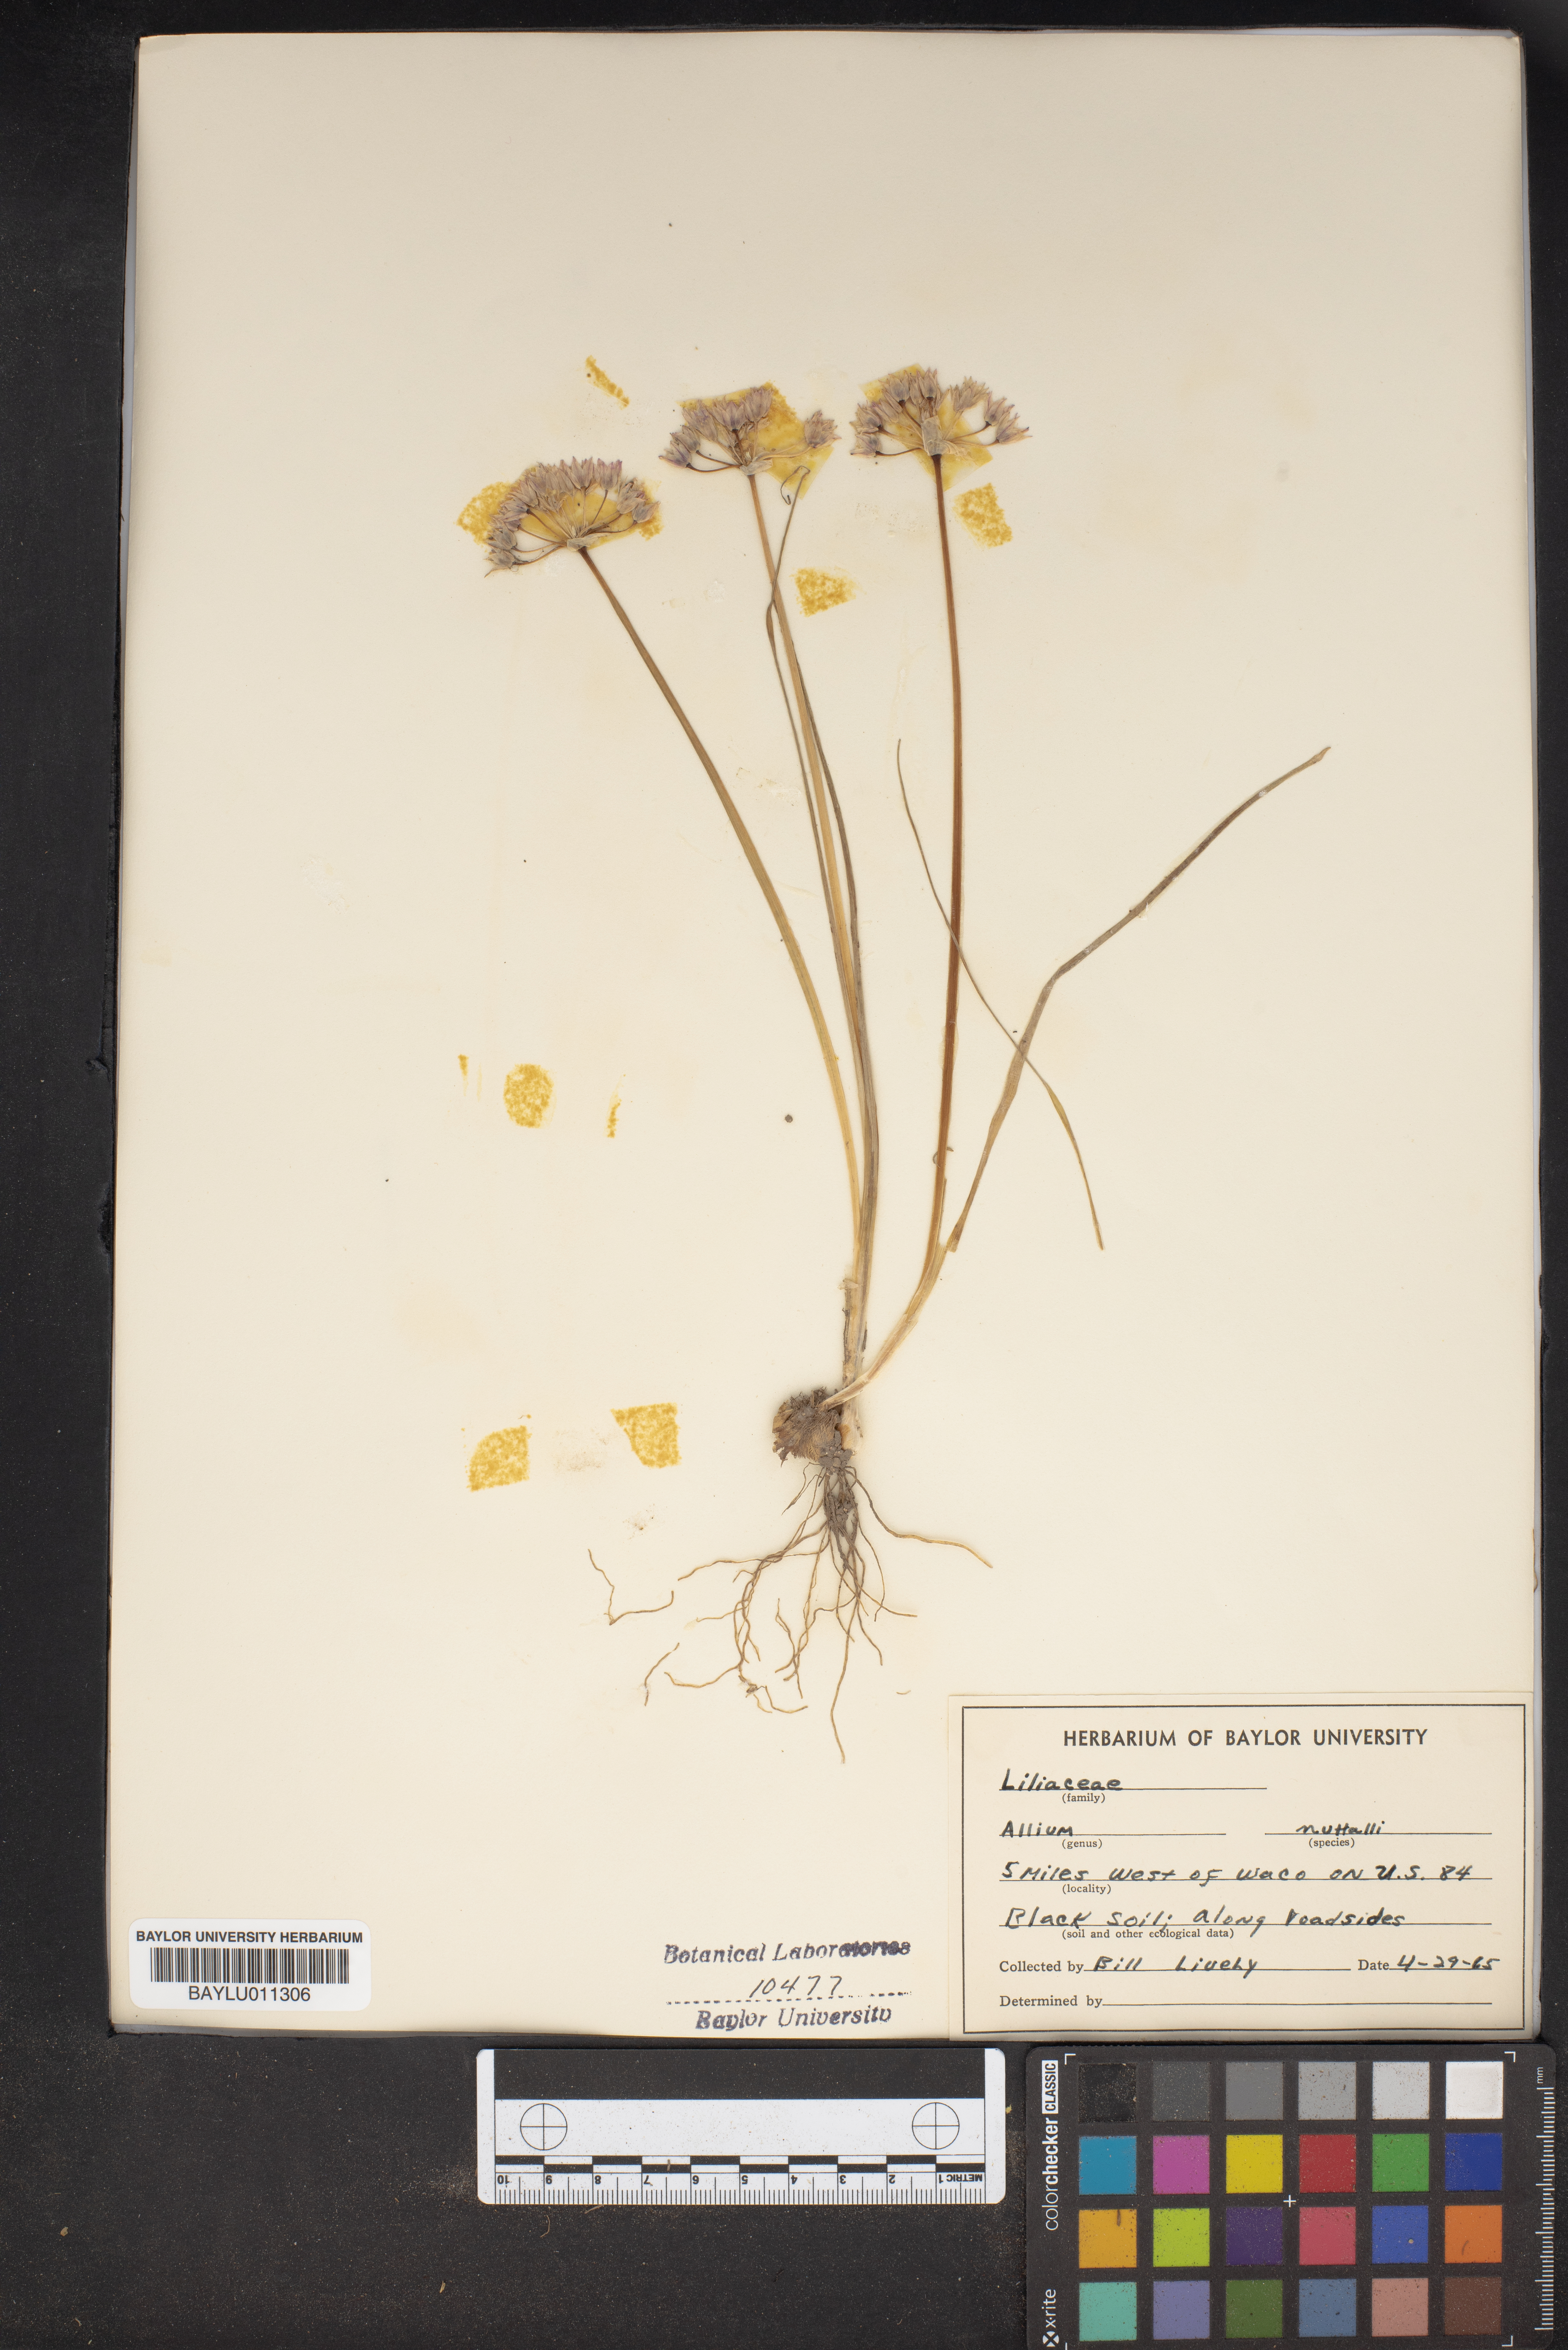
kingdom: Plantae
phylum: Tracheophyta
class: Liliopsida
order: Asparagales
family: Amaryllidaceae
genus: Allium
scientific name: Allium drummondii
